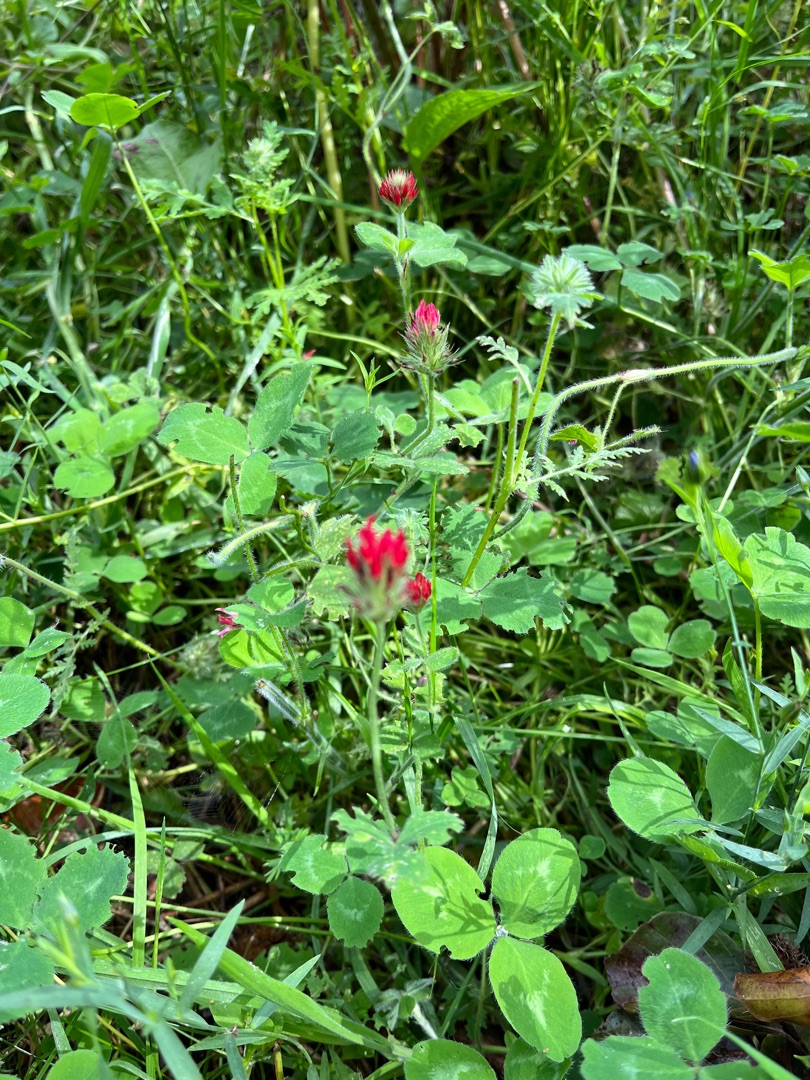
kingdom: Plantae
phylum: Tracheophyta
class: Magnoliopsida
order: Fabales
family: Fabaceae
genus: Trifolium
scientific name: Trifolium incarnatum
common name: Blod-kløver
